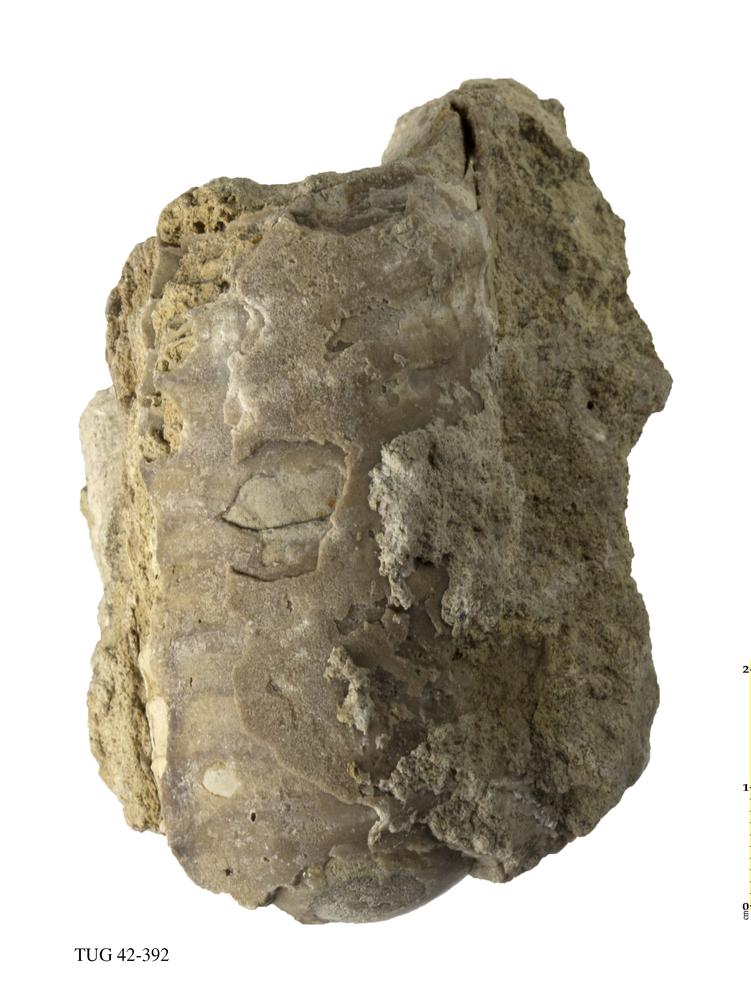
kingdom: Animalia
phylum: Mollusca
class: Cephalopoda
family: Proterocameroceratidae
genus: Anthoceras
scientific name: Anthoceras Orthoceras vaginatus
